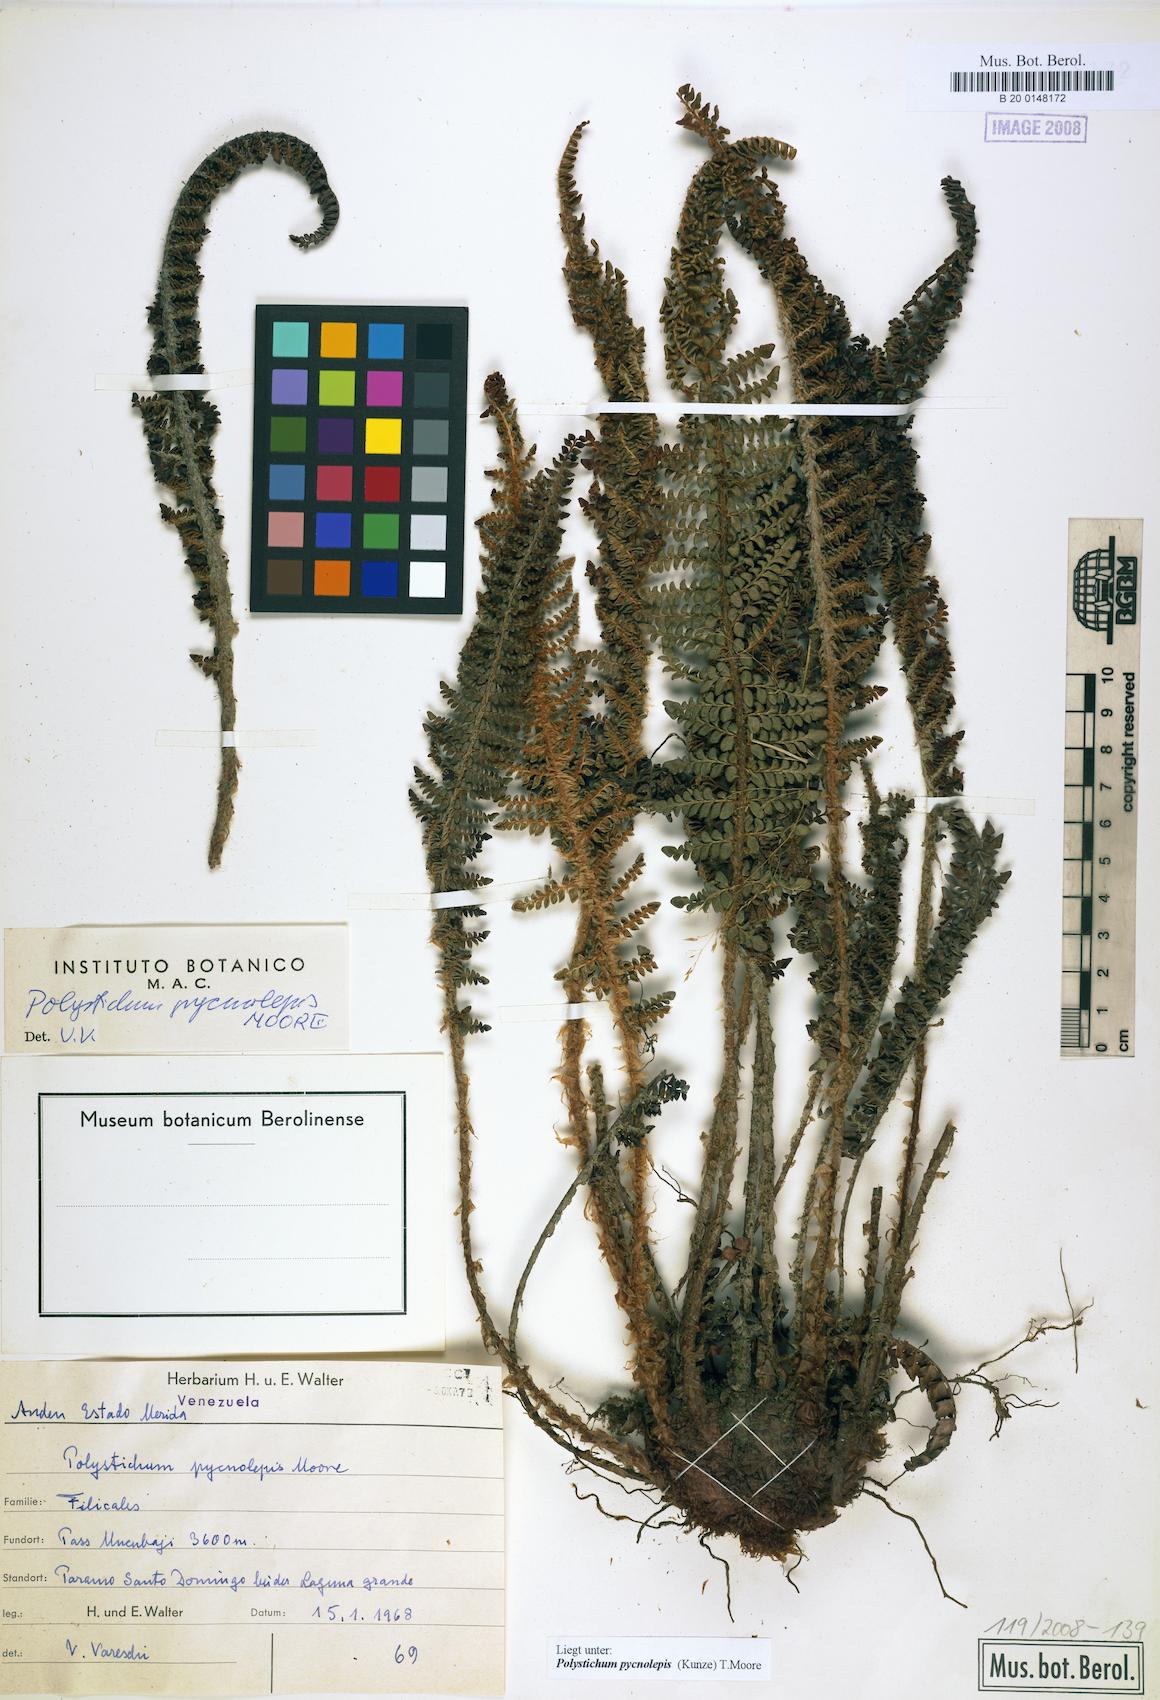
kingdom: Plantae
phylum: Tracheophyta
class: Polypodiopsida
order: Polypodiales
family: Dryopteridaceae
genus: Polystichum
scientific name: Polystichum pycnolepis
